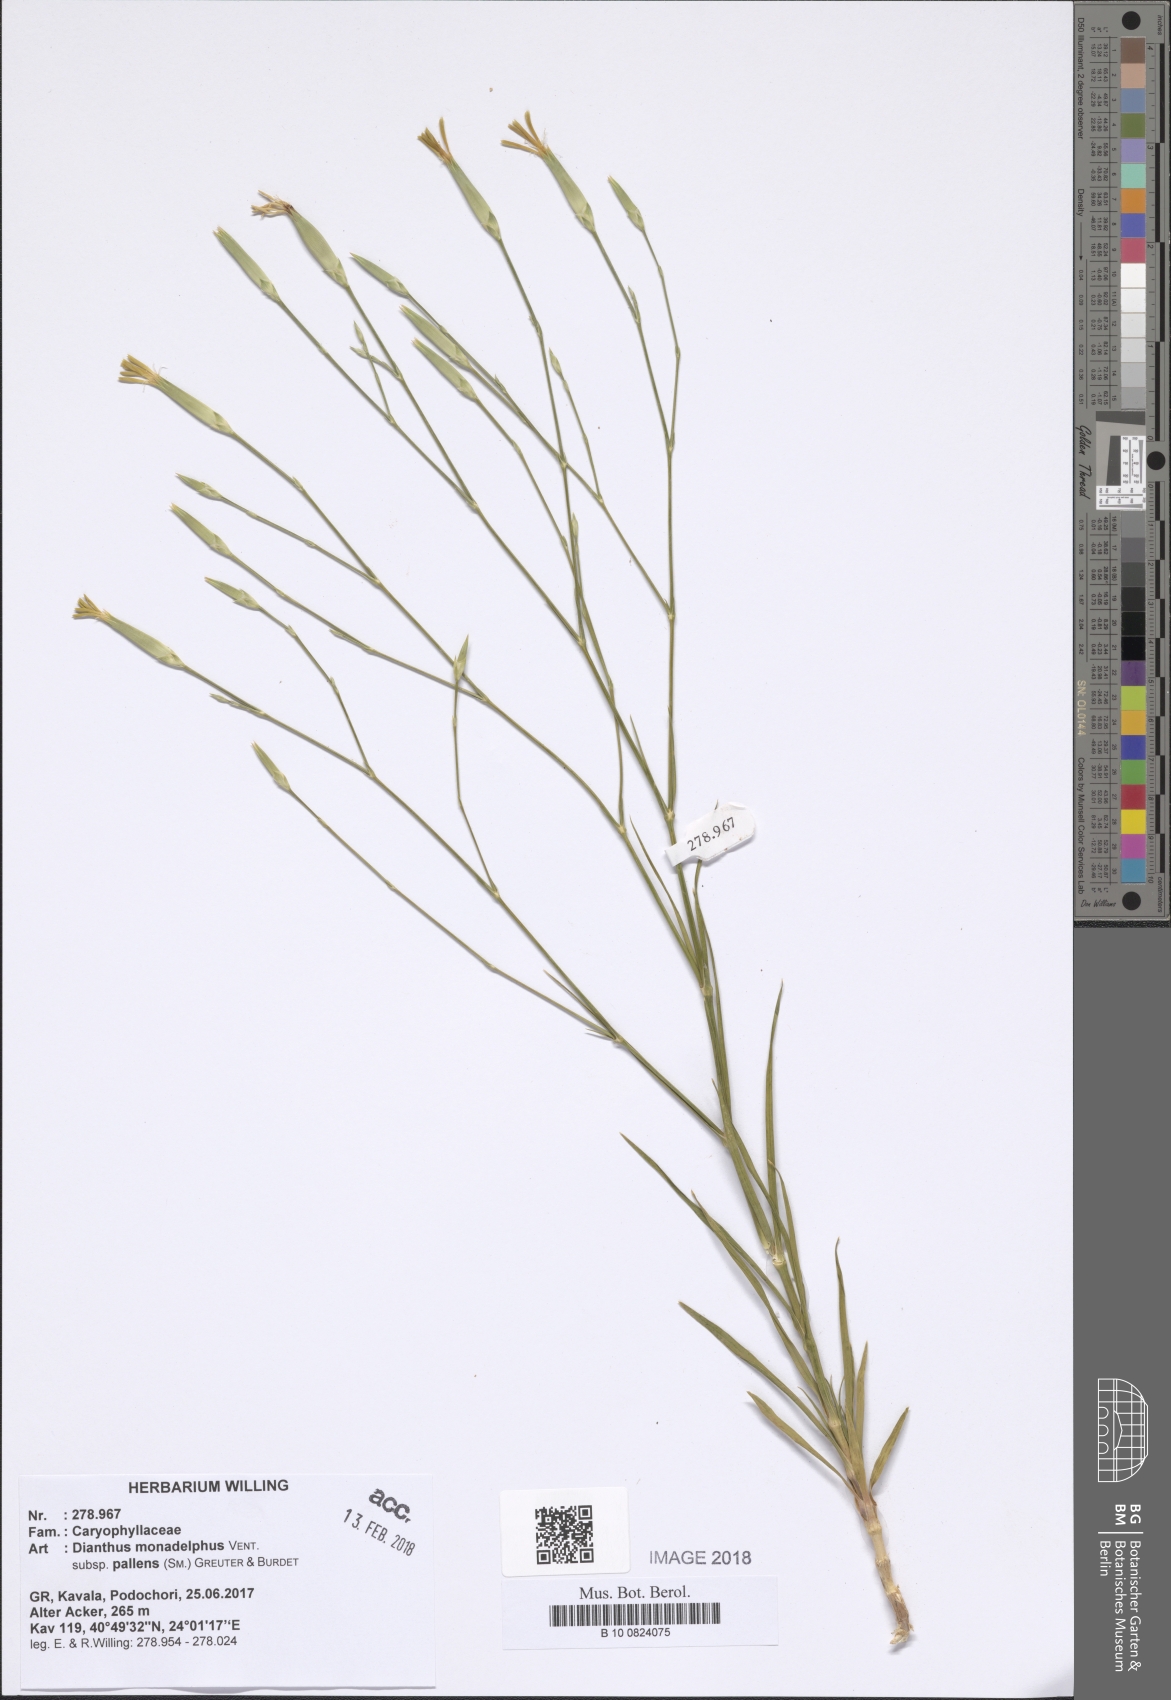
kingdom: Plantae
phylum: Tracheophyta
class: Magnoliopsida
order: Caryophyllales
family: Caryophyllaceae
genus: Dianthus
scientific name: Dianthus monadelphus
